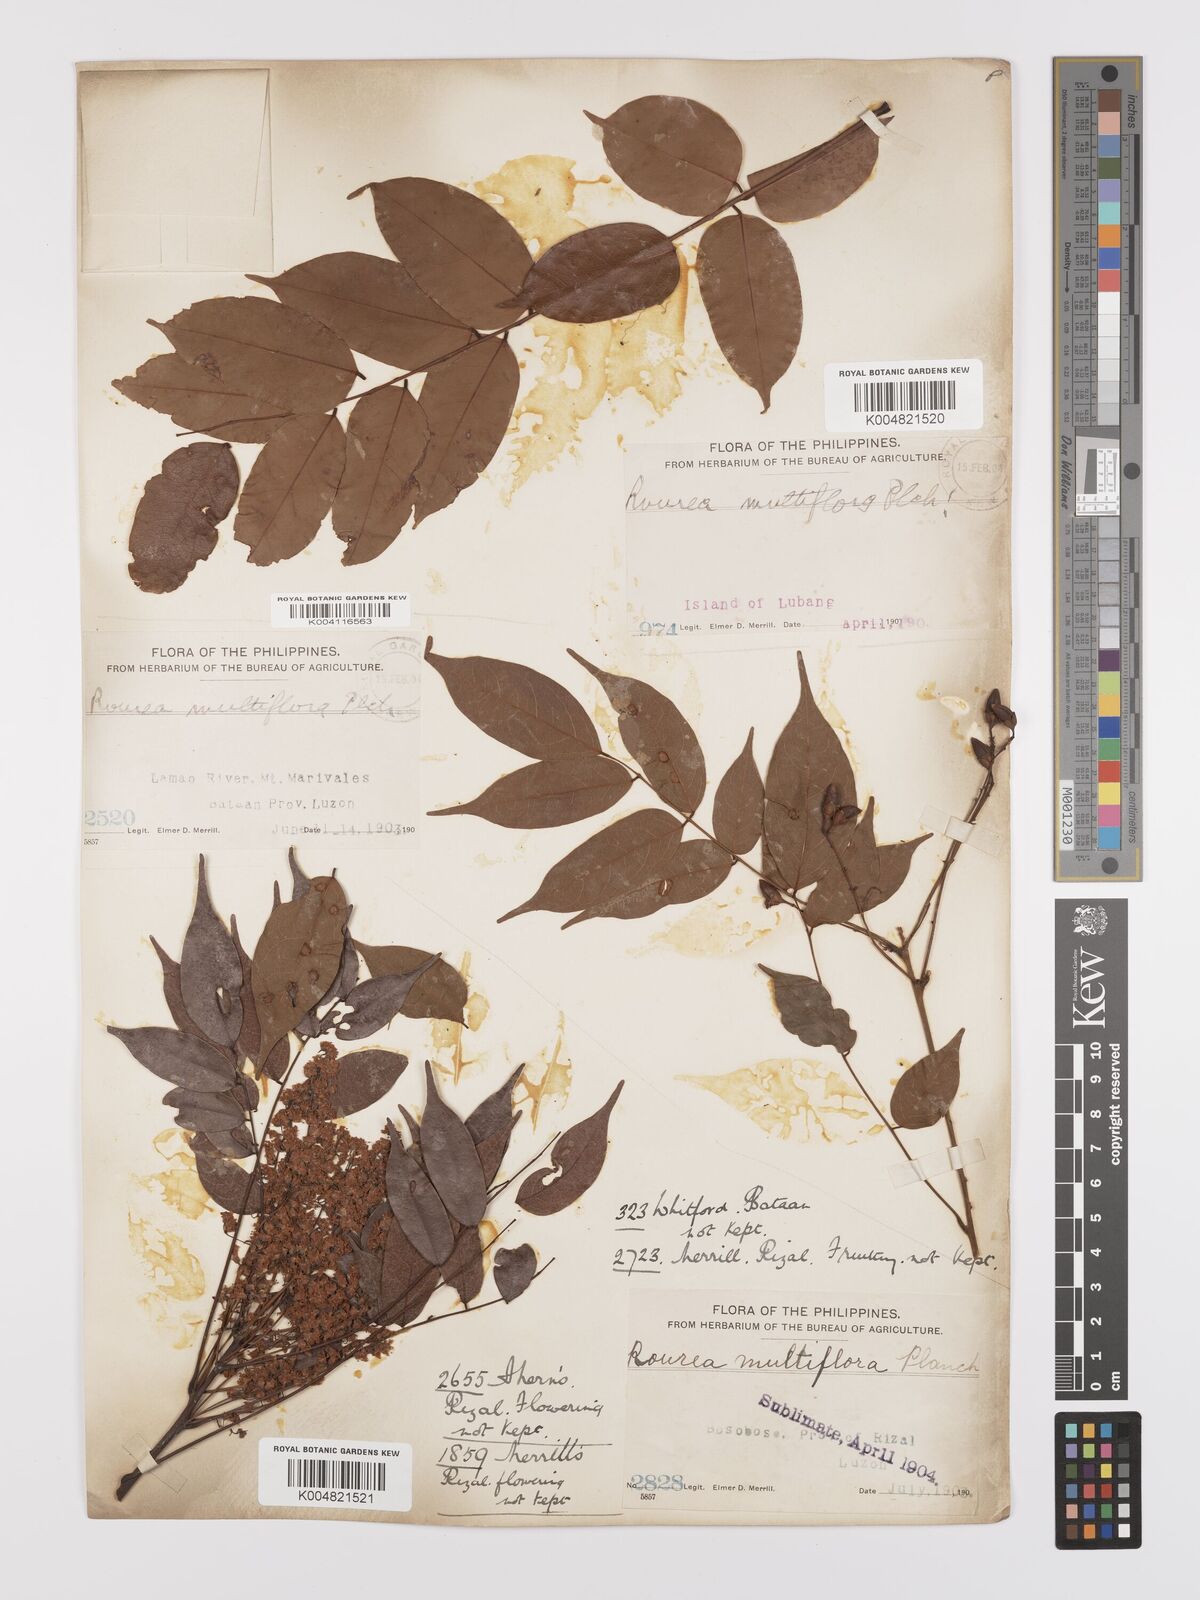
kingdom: Plantae
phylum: Tracheophyta
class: Magnoliopsida
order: Oxalidales
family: Connaraceae
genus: Rourea
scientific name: Rourea minor
